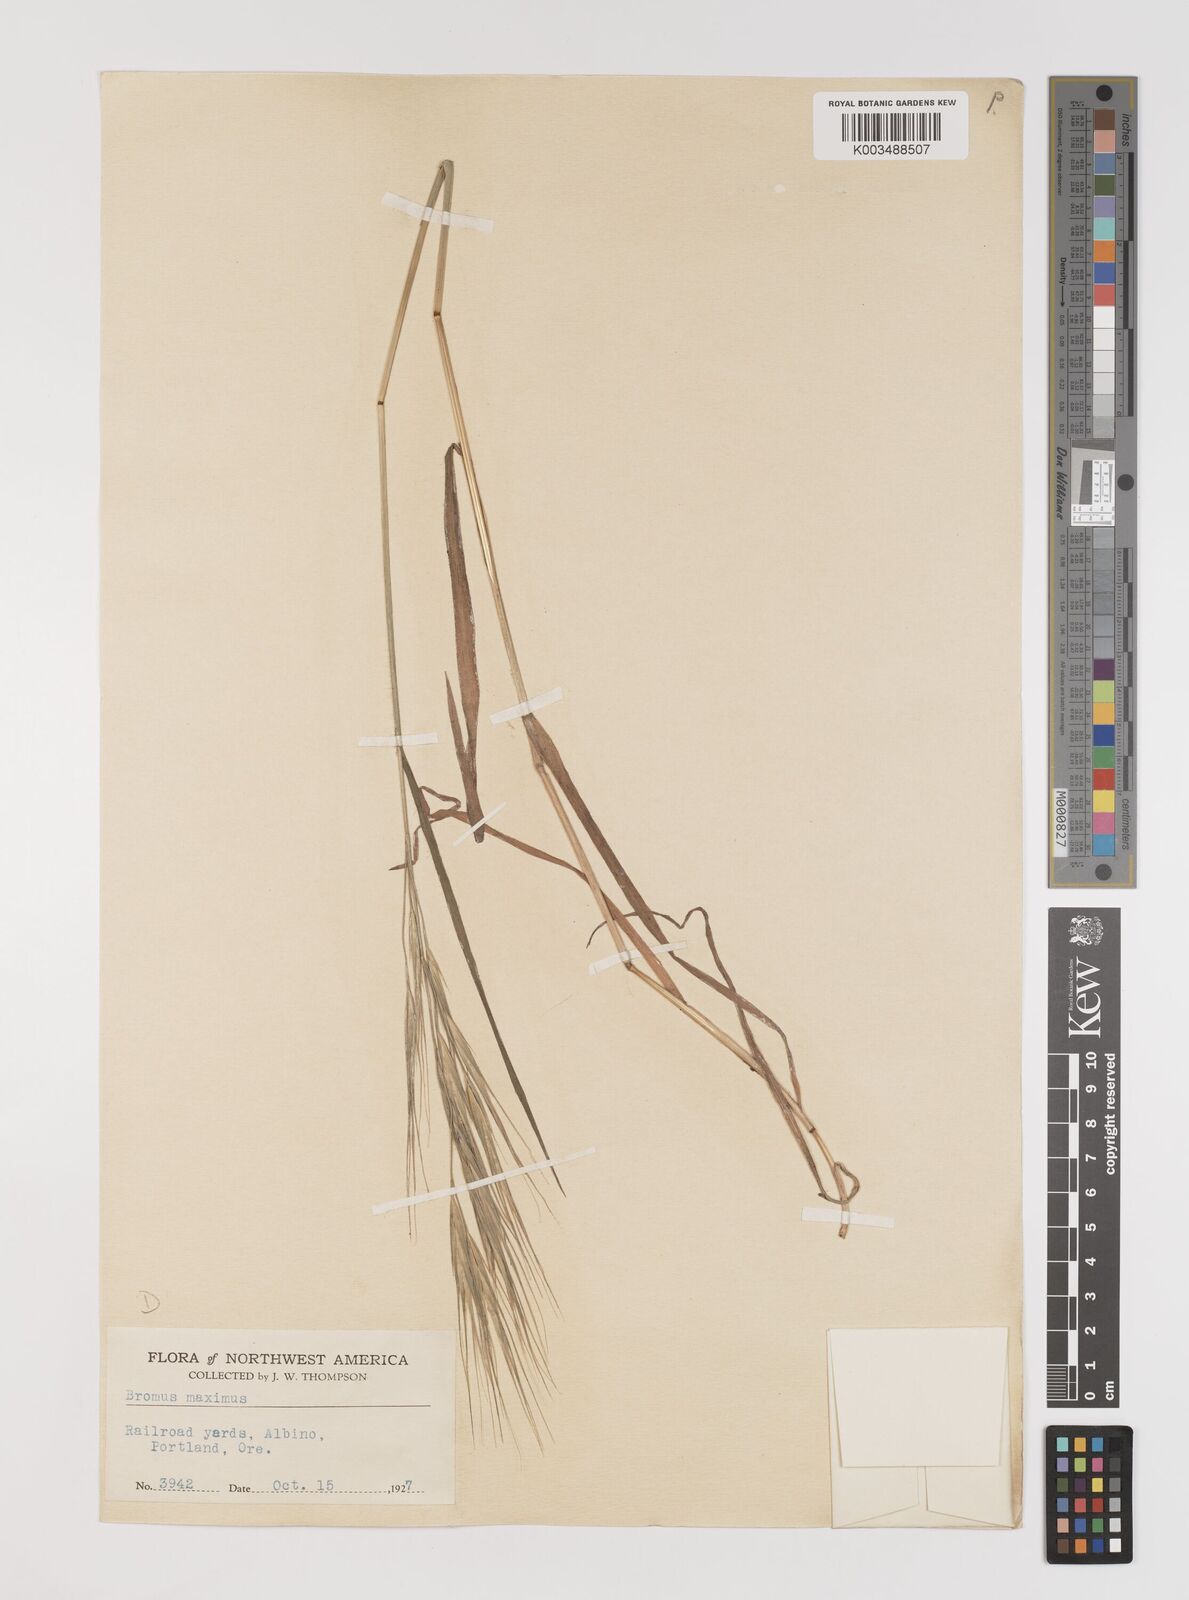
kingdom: Plantae
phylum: Tracheophyta
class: Liliopsida
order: Poales
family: Poaceae
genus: Bromus
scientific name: Bromus diandrus
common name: Ripgut brome
